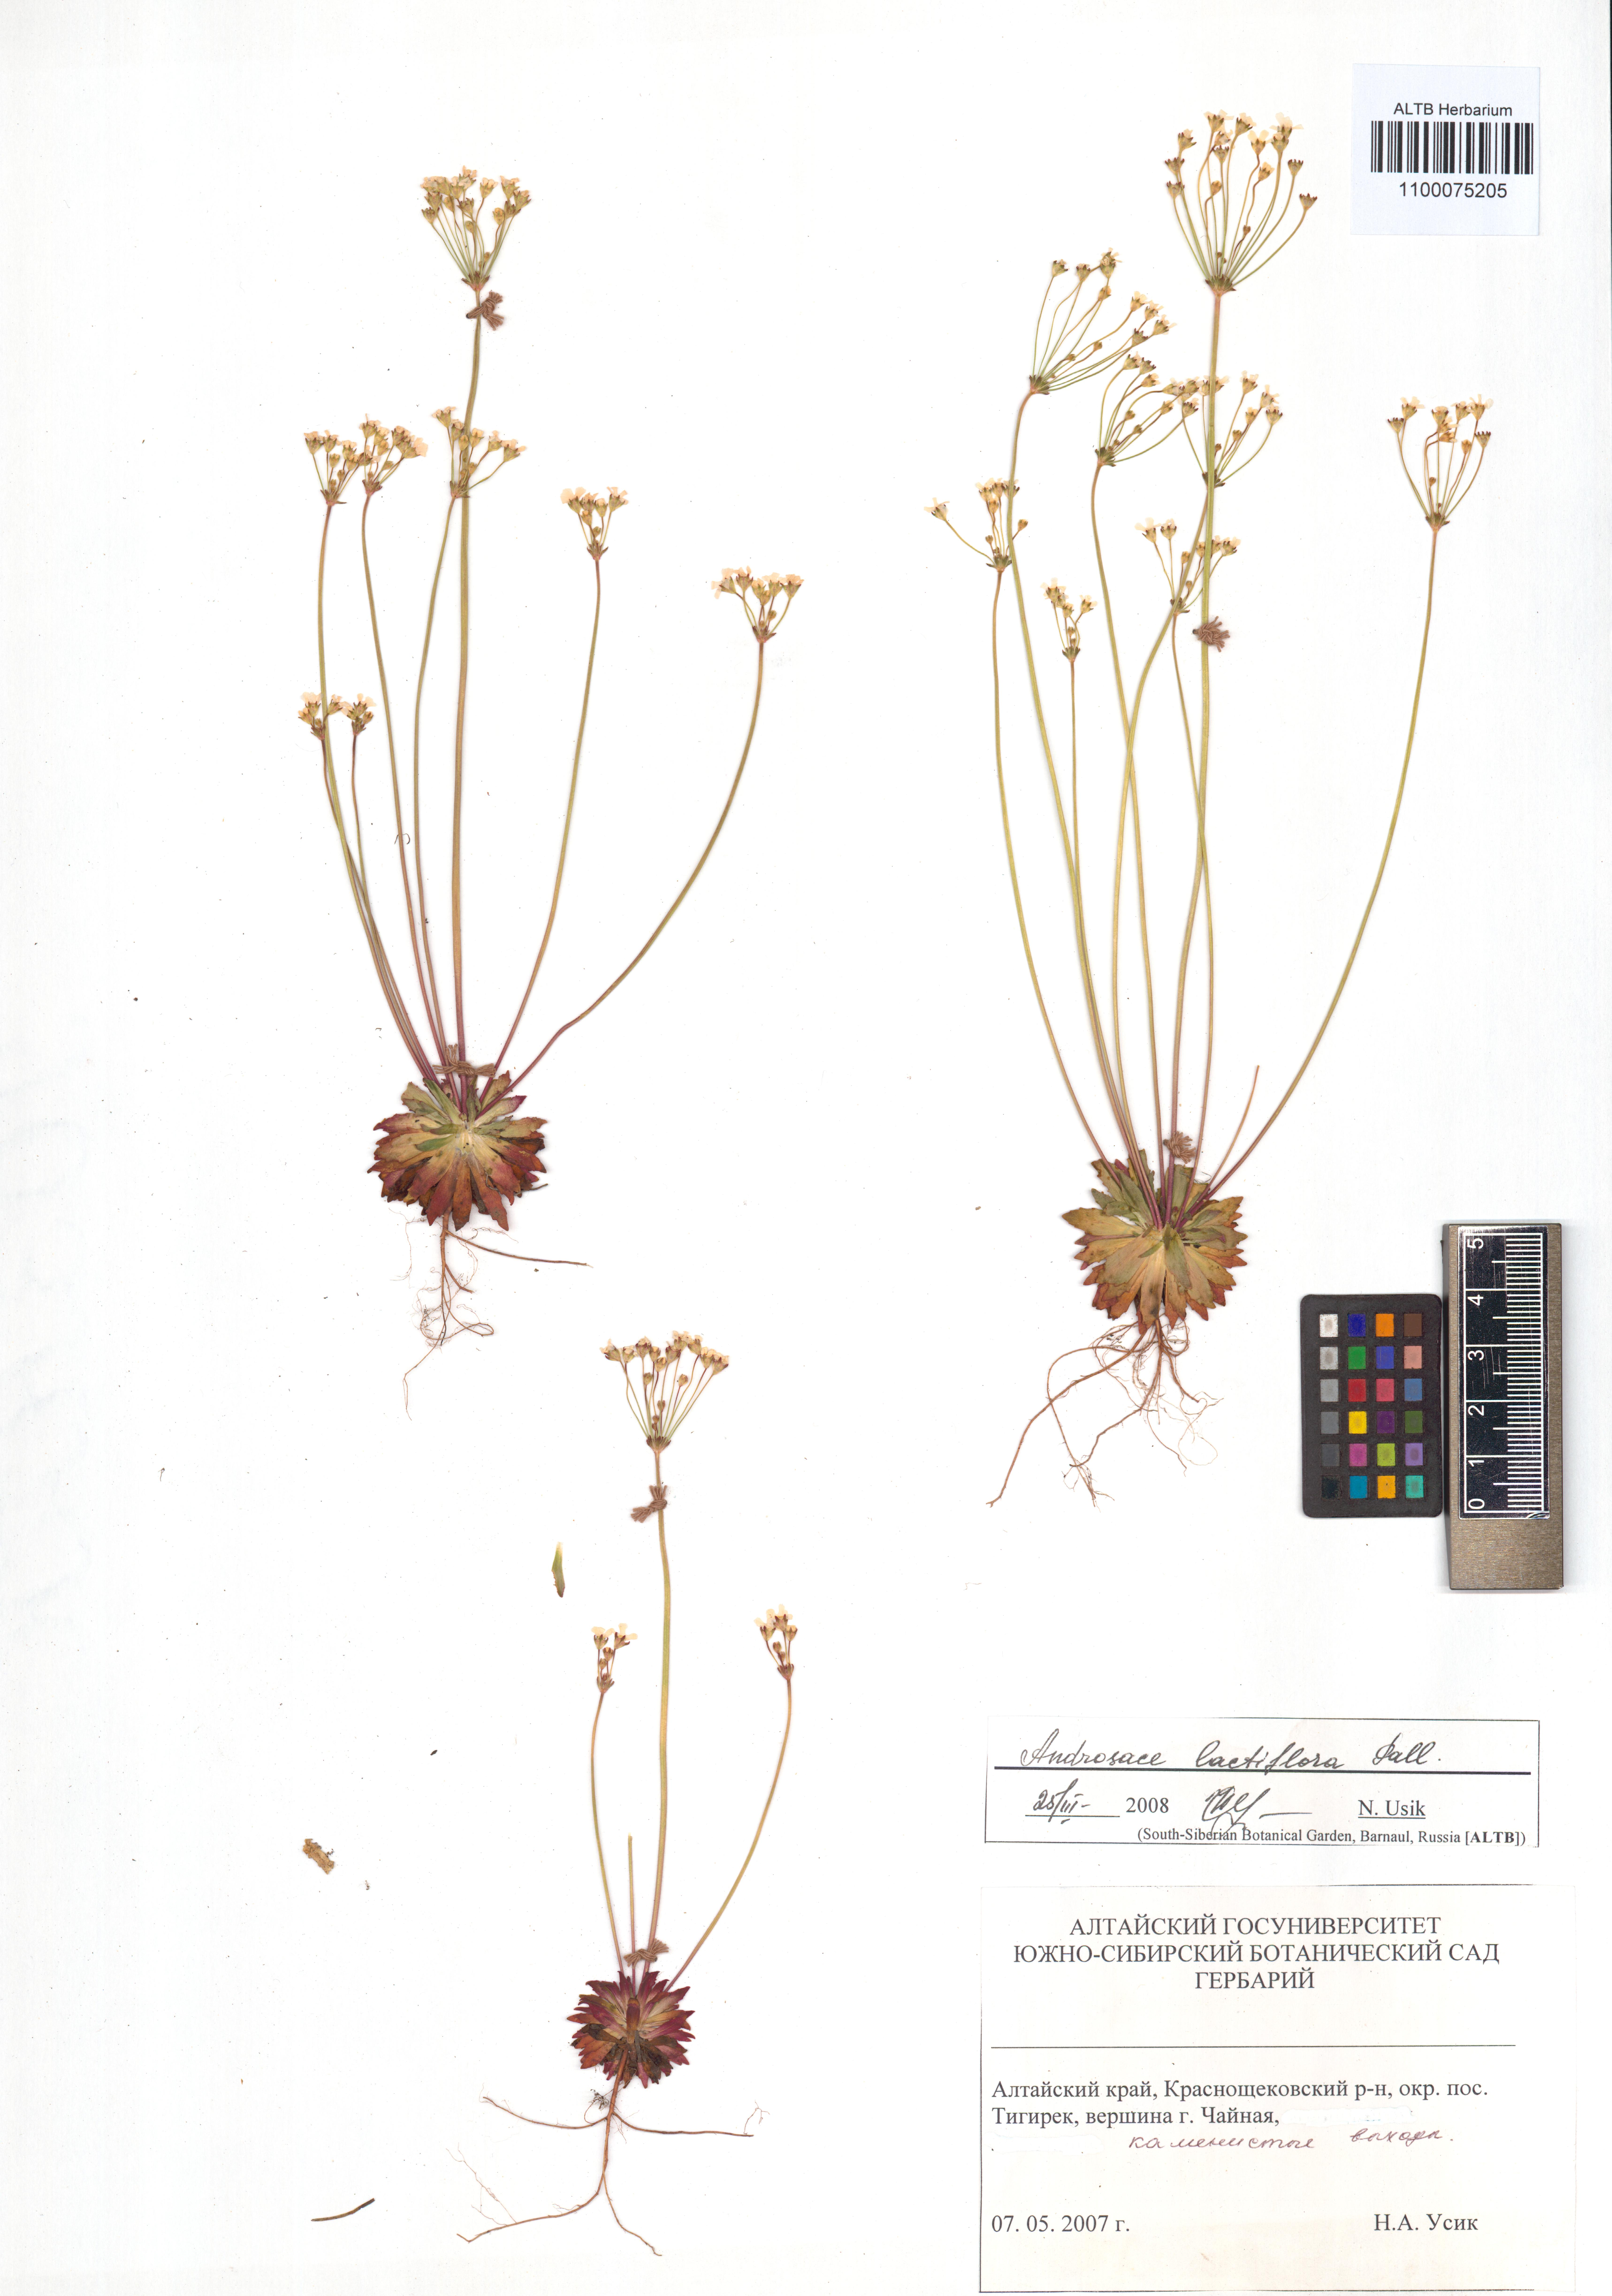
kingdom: Plantae
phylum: Tracheophyta
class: Magnoliopsida
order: Ericales
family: Primulaceae
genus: Androsace
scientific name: Androsace lactiflora
